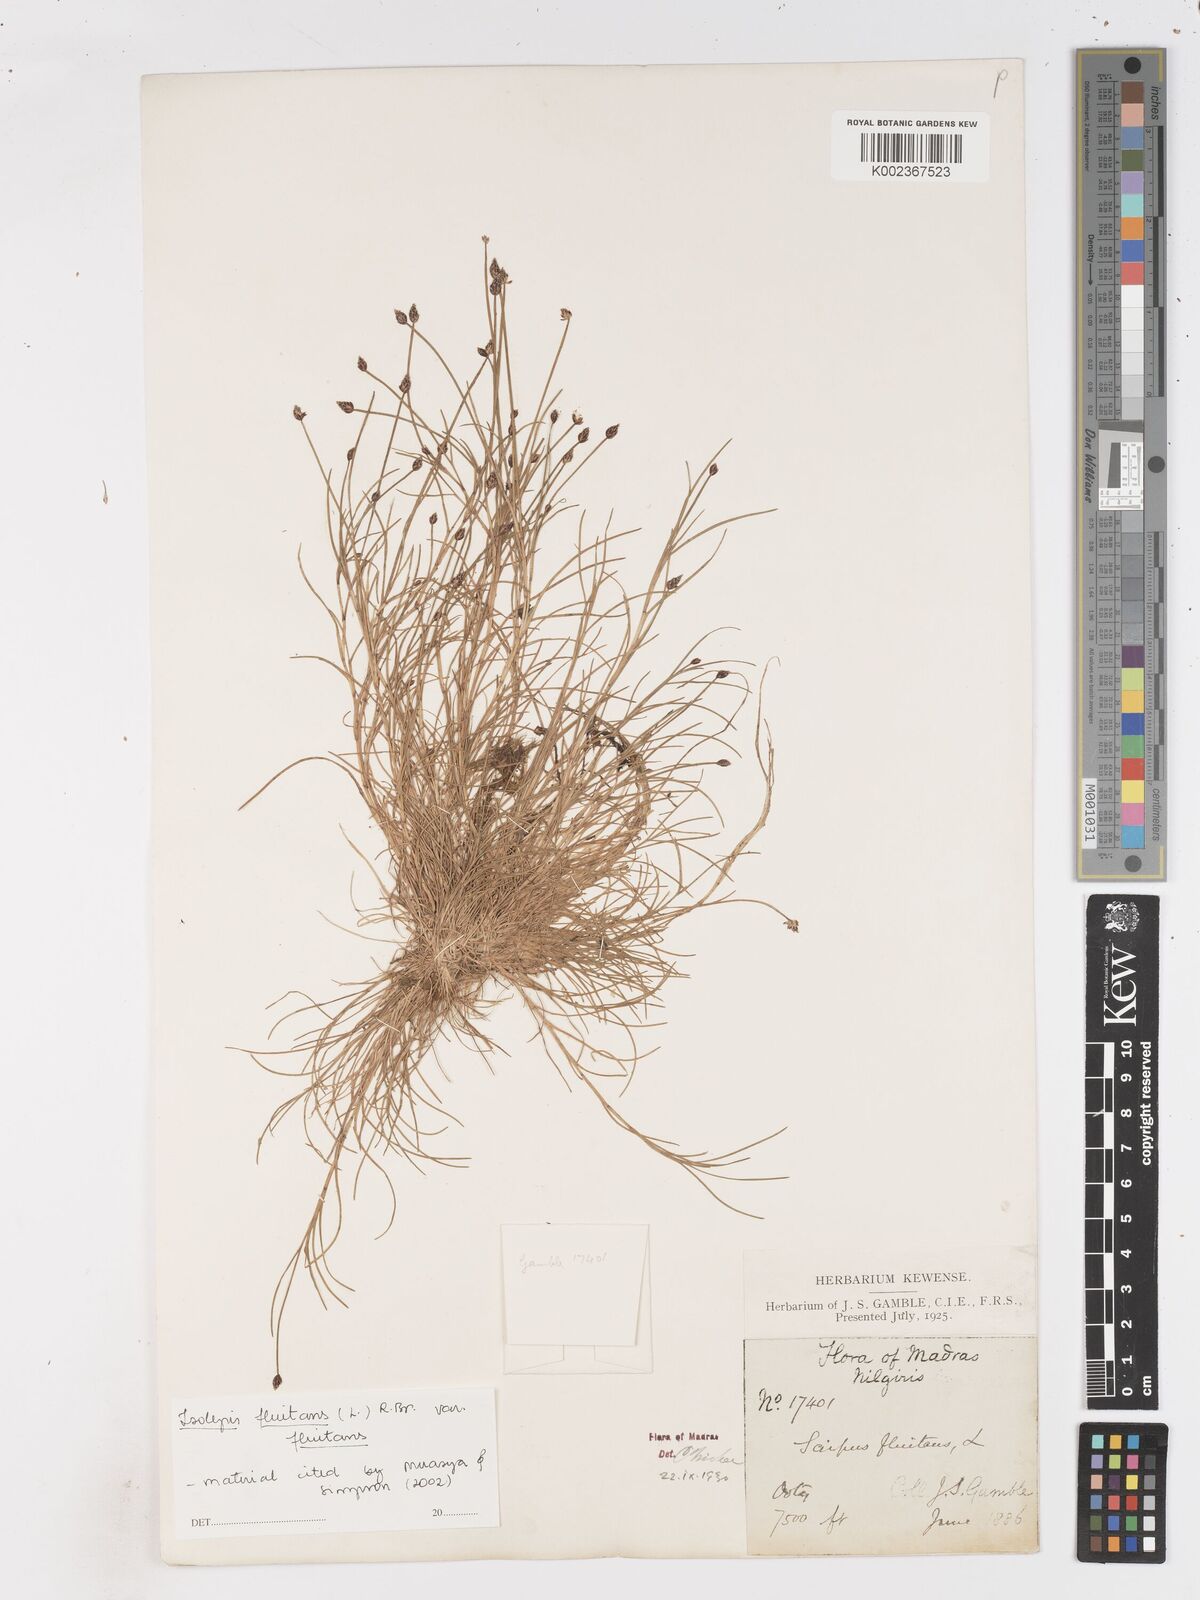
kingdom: Plantae
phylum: Tracheophyta
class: Liliopsida
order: Poales
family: Cyperaceae
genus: Isolepis
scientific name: Isolepis fluitans
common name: Floating club-rush
